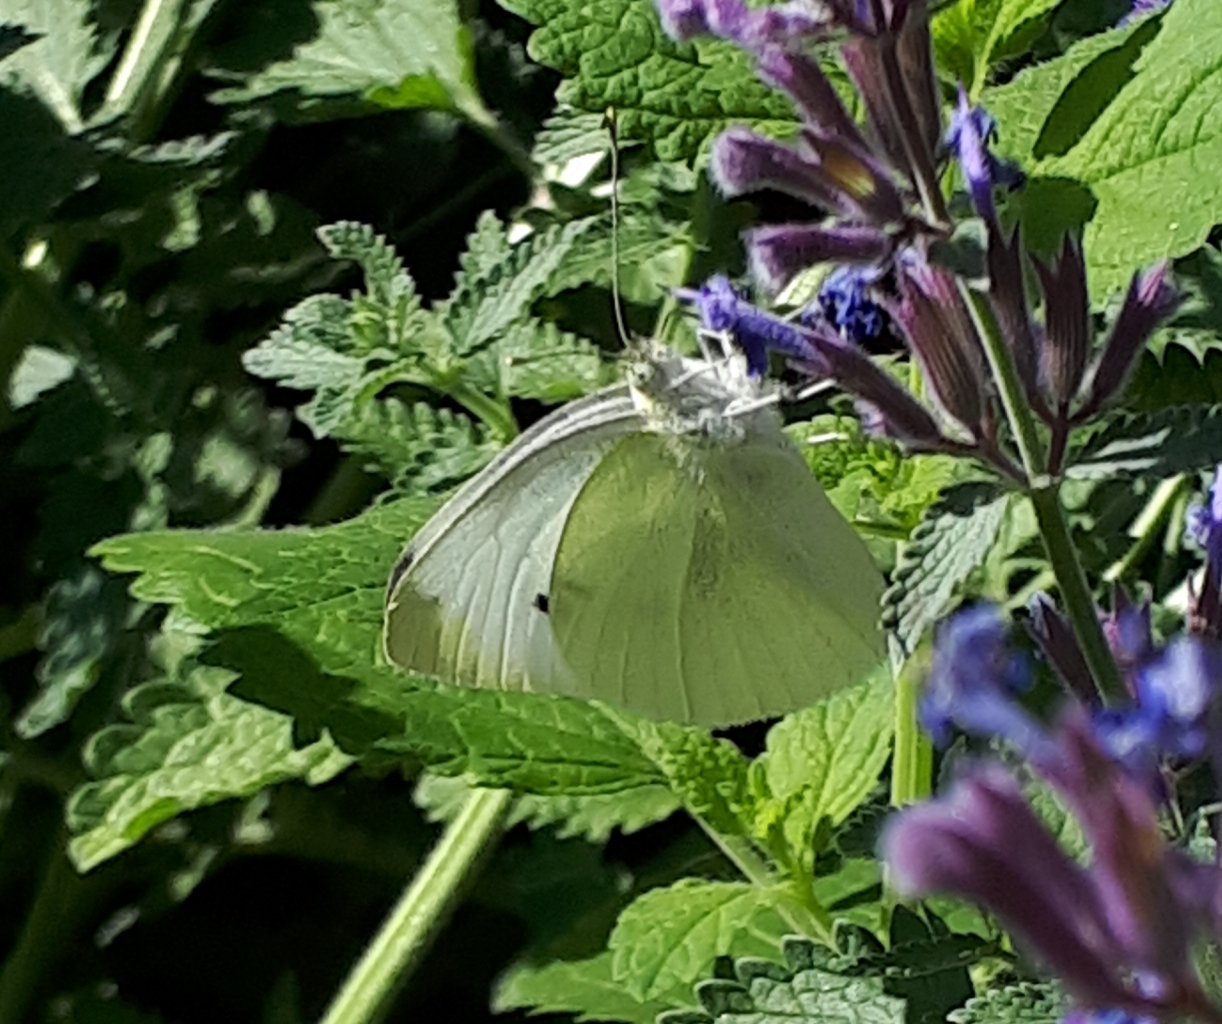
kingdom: Animalia
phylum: Arthropoda
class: Insecta
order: Lepidoptera
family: Pieridae
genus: Pieris
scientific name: Pieris rapae
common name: Cabbage White
